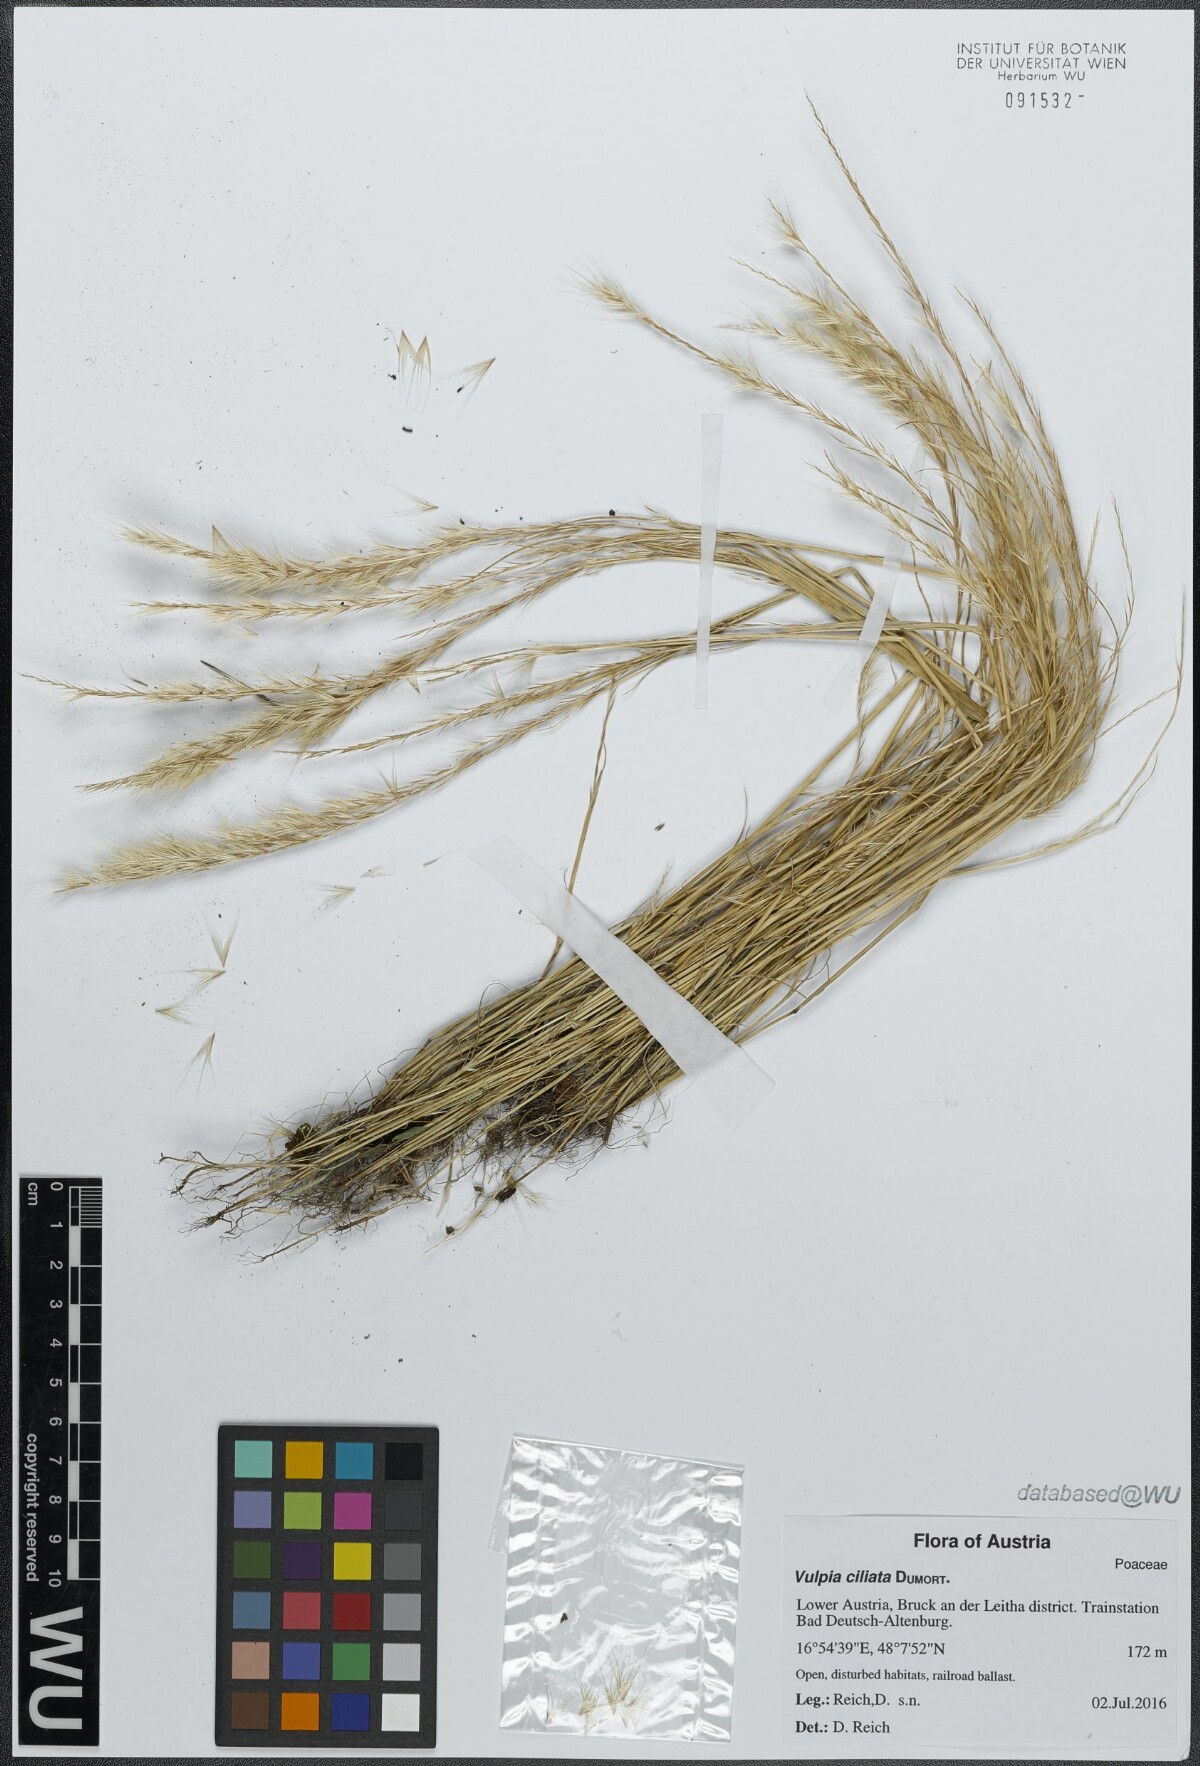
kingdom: Plantae
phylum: Tracheophyta
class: Liliopsida
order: Poales
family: Poaceae
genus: Festuca
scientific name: Festuca ambigua
